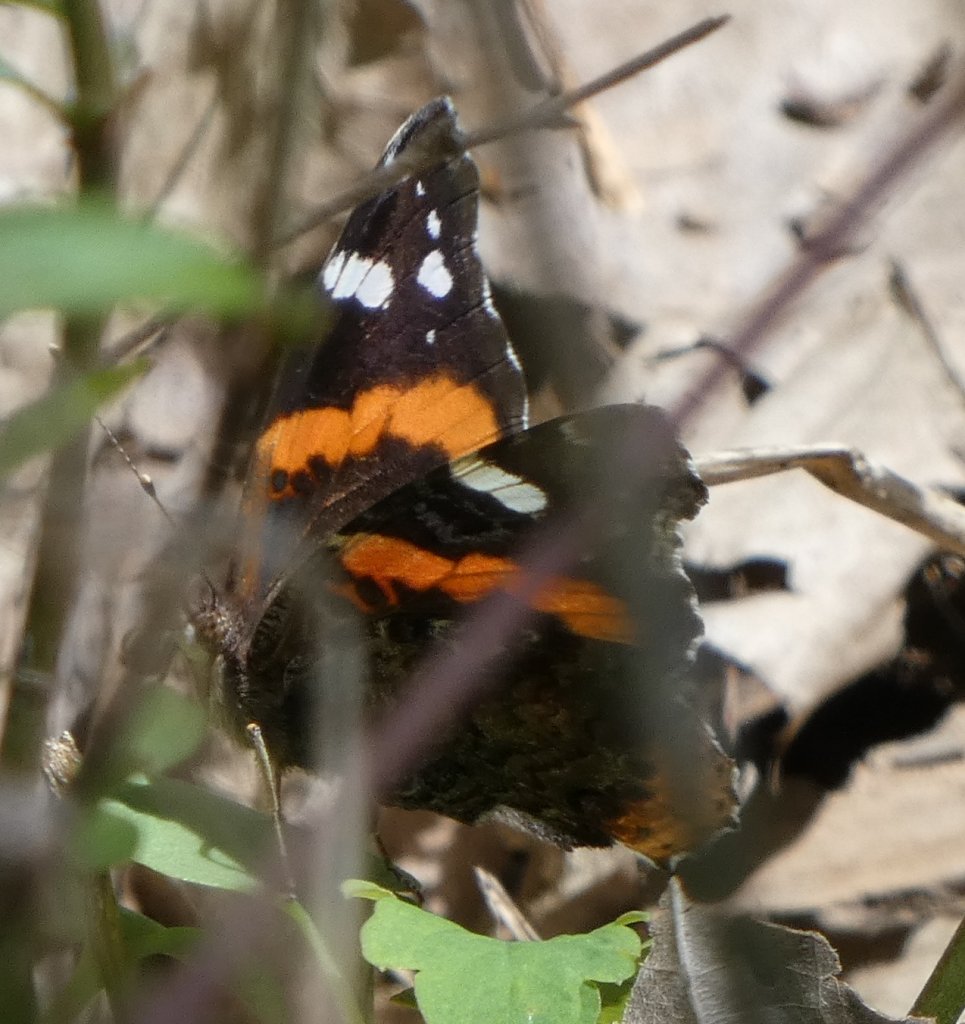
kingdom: Animalia
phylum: Arthropoda
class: Insecta
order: Lepidoptera
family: Nymphalidae
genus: Vanessa
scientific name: Vanessa atalanta
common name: Red Admiral
